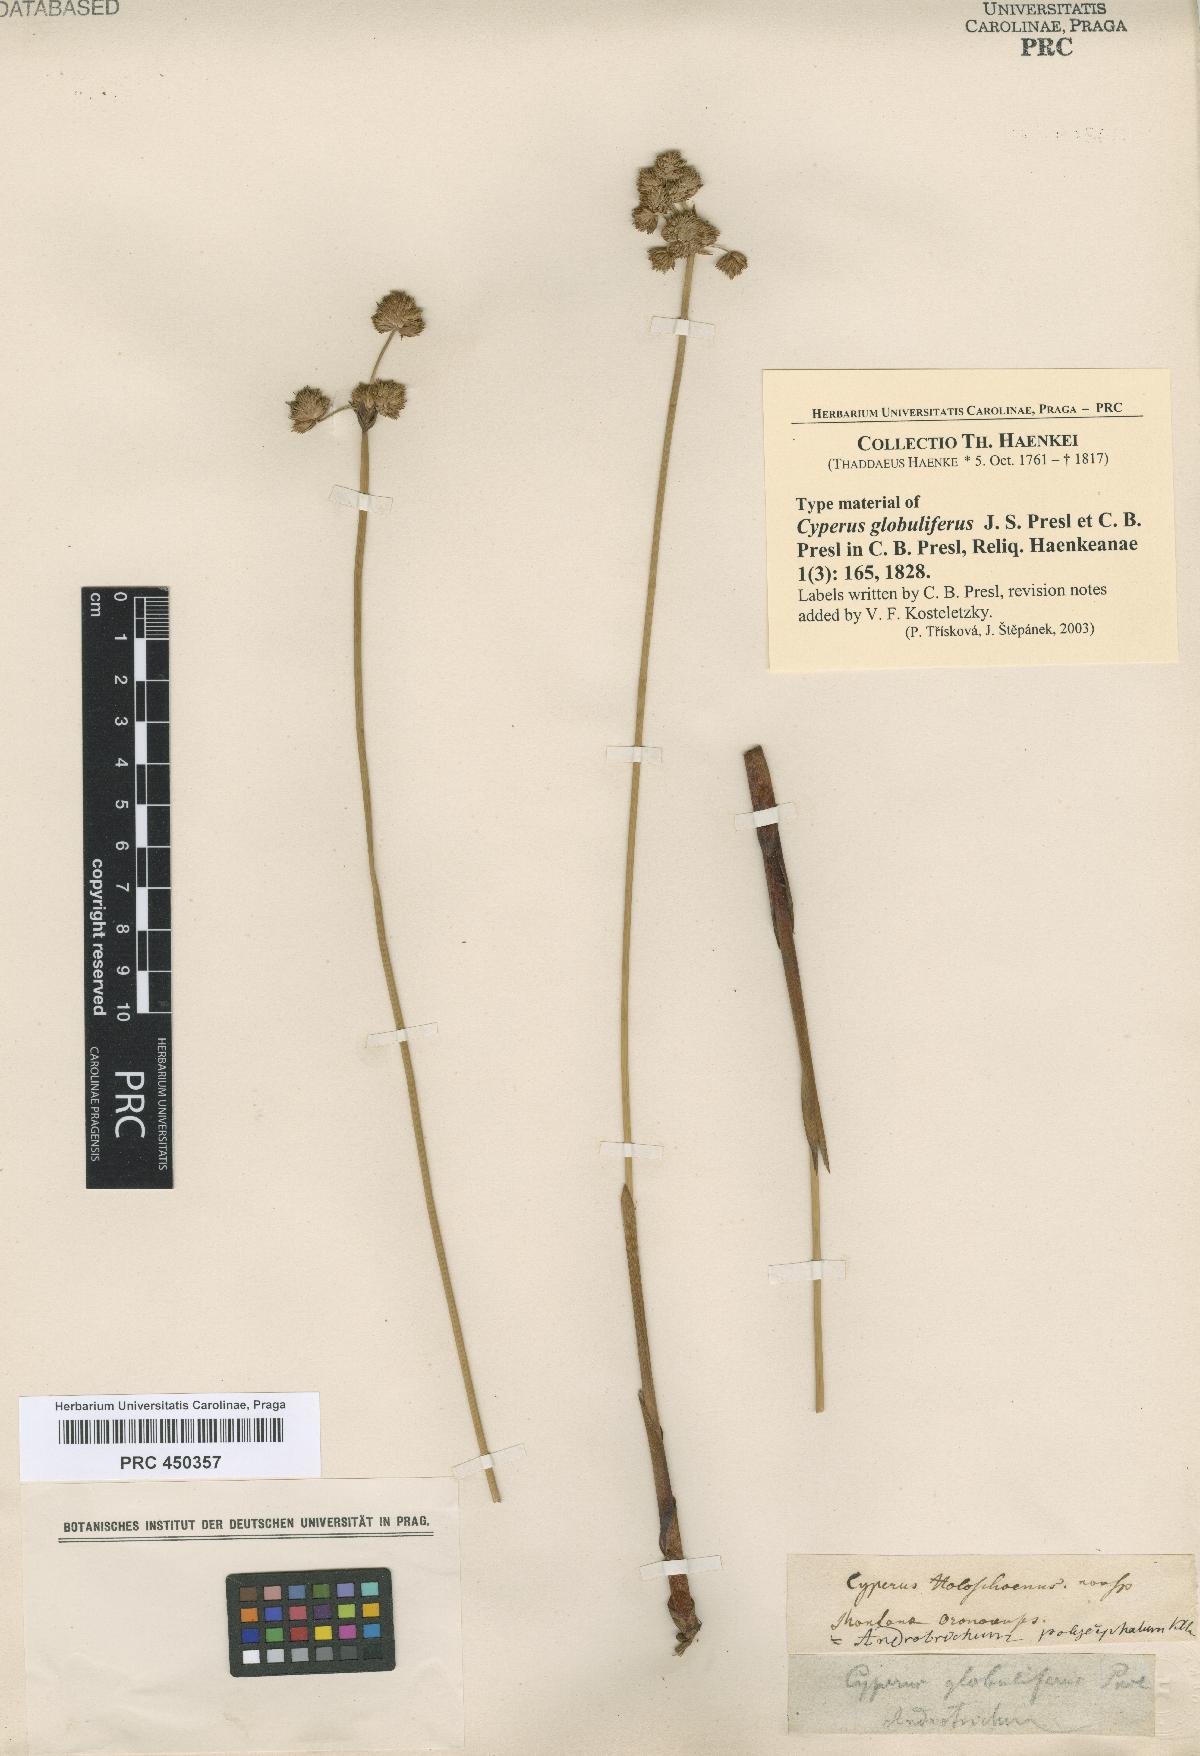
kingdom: Plantae
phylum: Tracheophyta
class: Liliopsida
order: Poales
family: Cyperaceae
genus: Cyperus
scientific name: Cyperus trigynus
